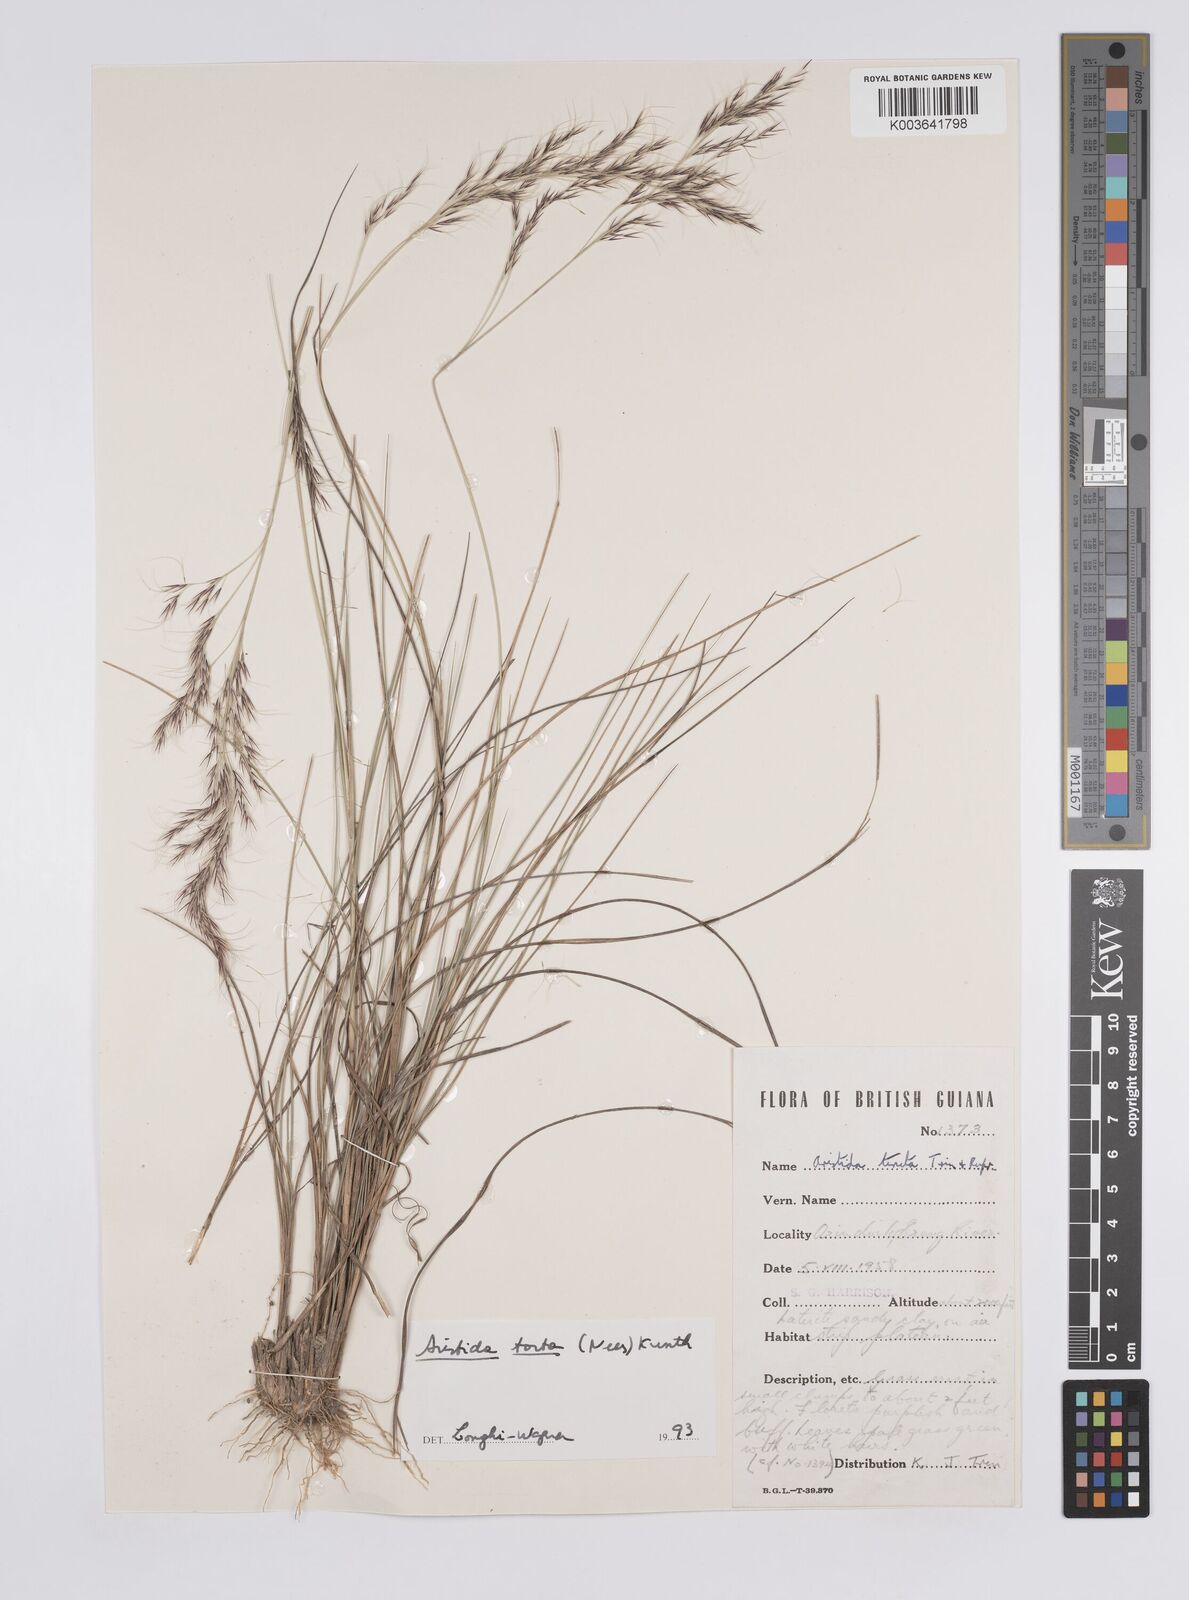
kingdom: Plantae
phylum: Tracheophyta
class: Liliopsida
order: Poales
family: Poaceae
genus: Aristida
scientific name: Aristida torta
